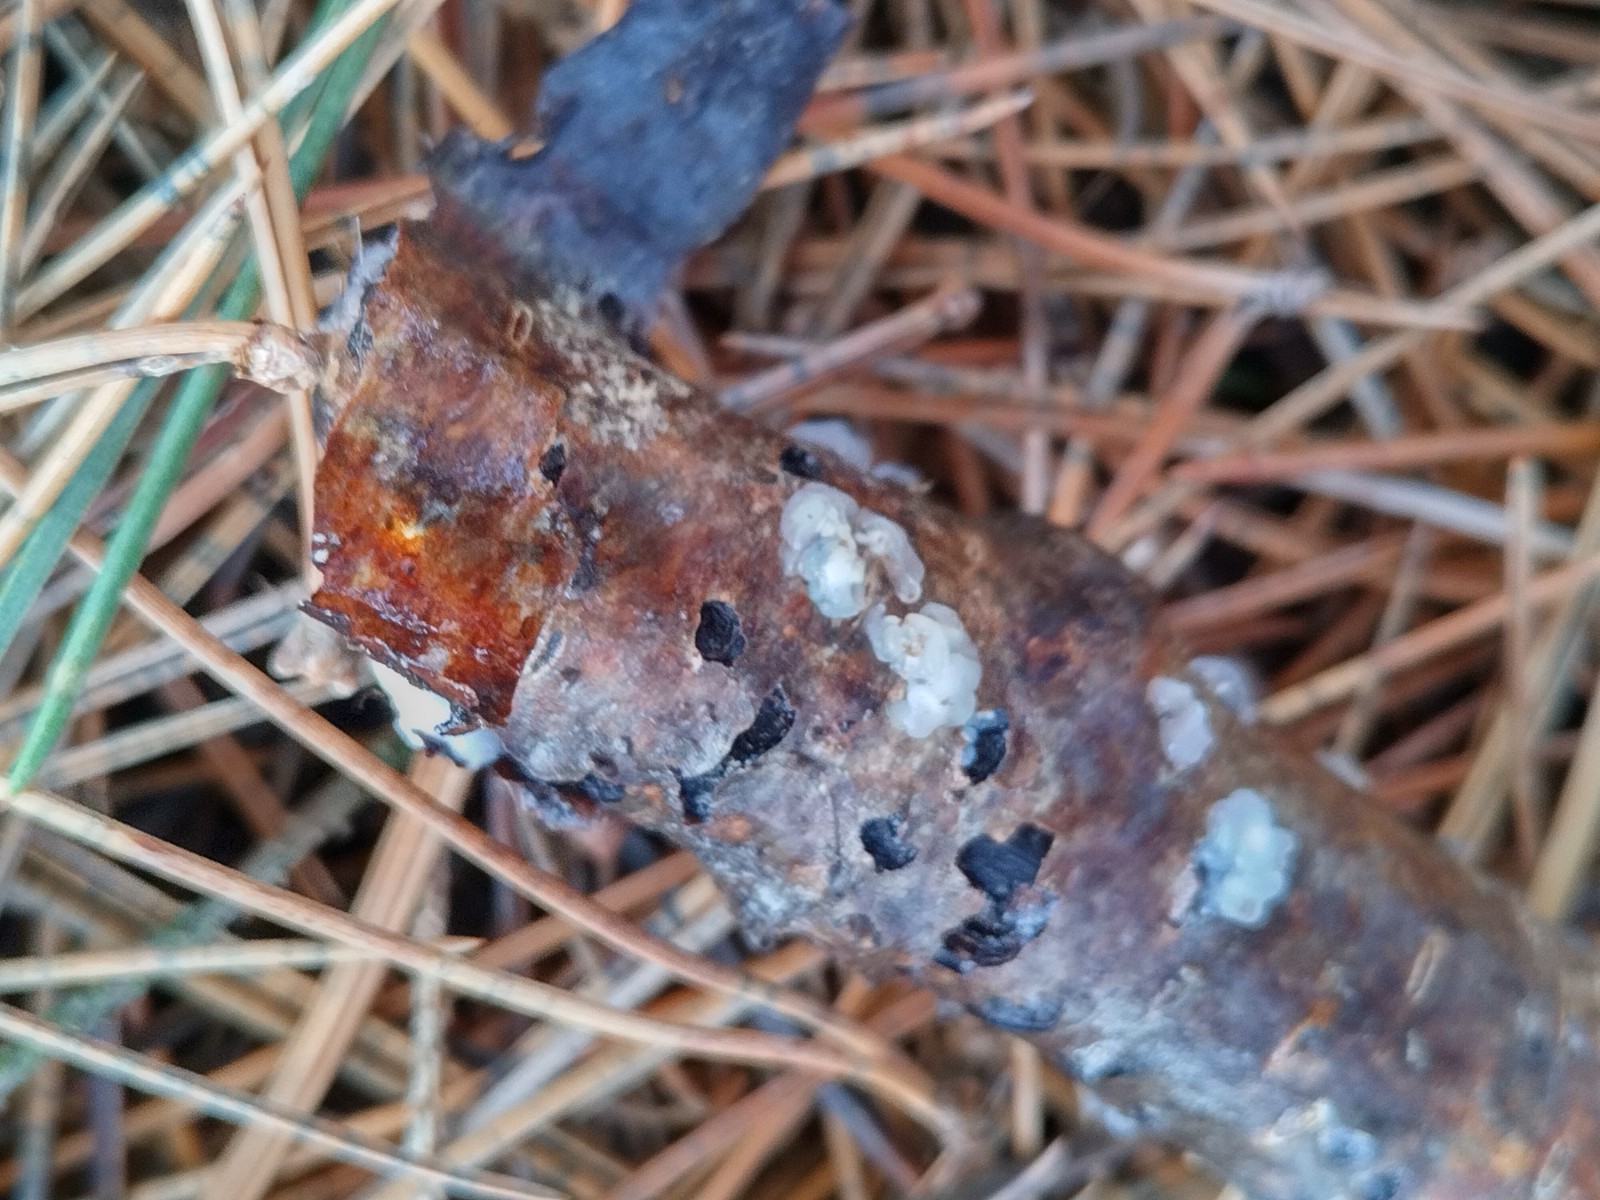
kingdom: Fungi
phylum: Basidiomycota
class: Agaricomycetes
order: Auriculariales
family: Hyaloriaceae
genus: Myxarium
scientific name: Myxarium nucleatum
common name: klar bævretop
